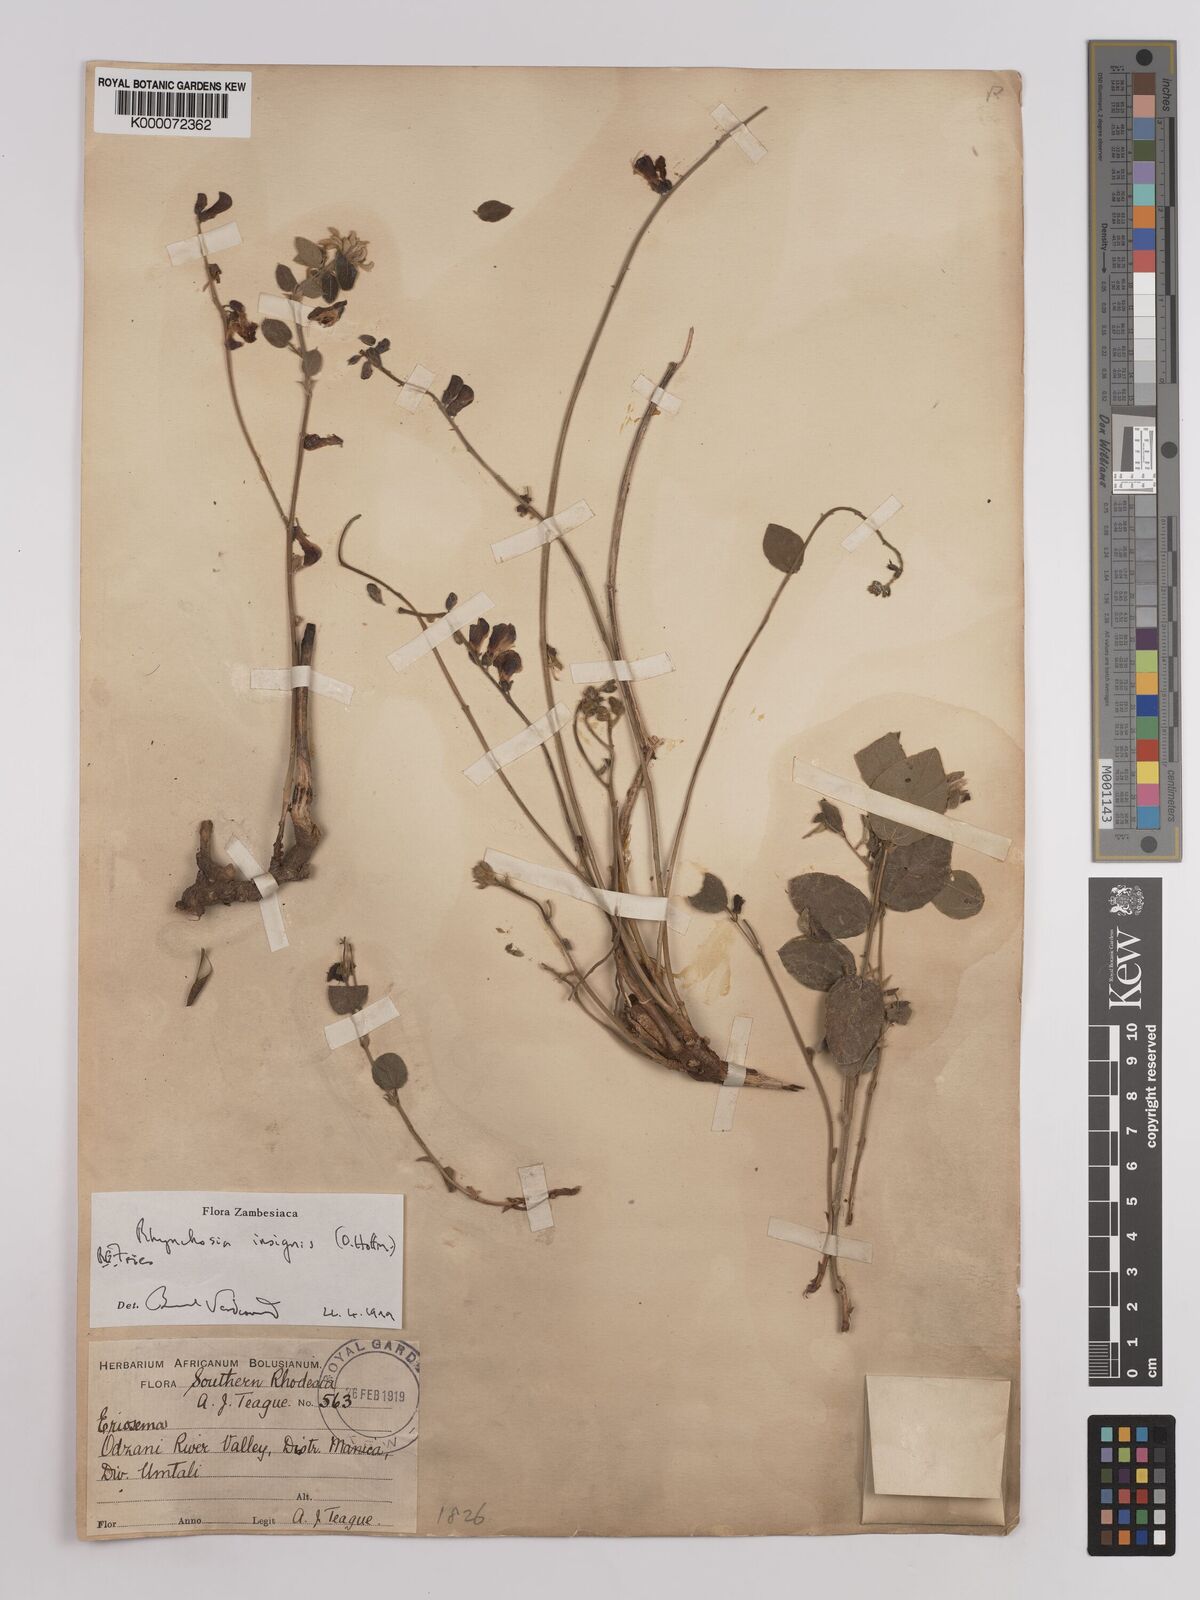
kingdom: Plantae
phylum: Tracheophyta
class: Magnoliopsida
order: Fabales
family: Fabaceae
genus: Rhynchosia
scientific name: Rhynchosia insignis
